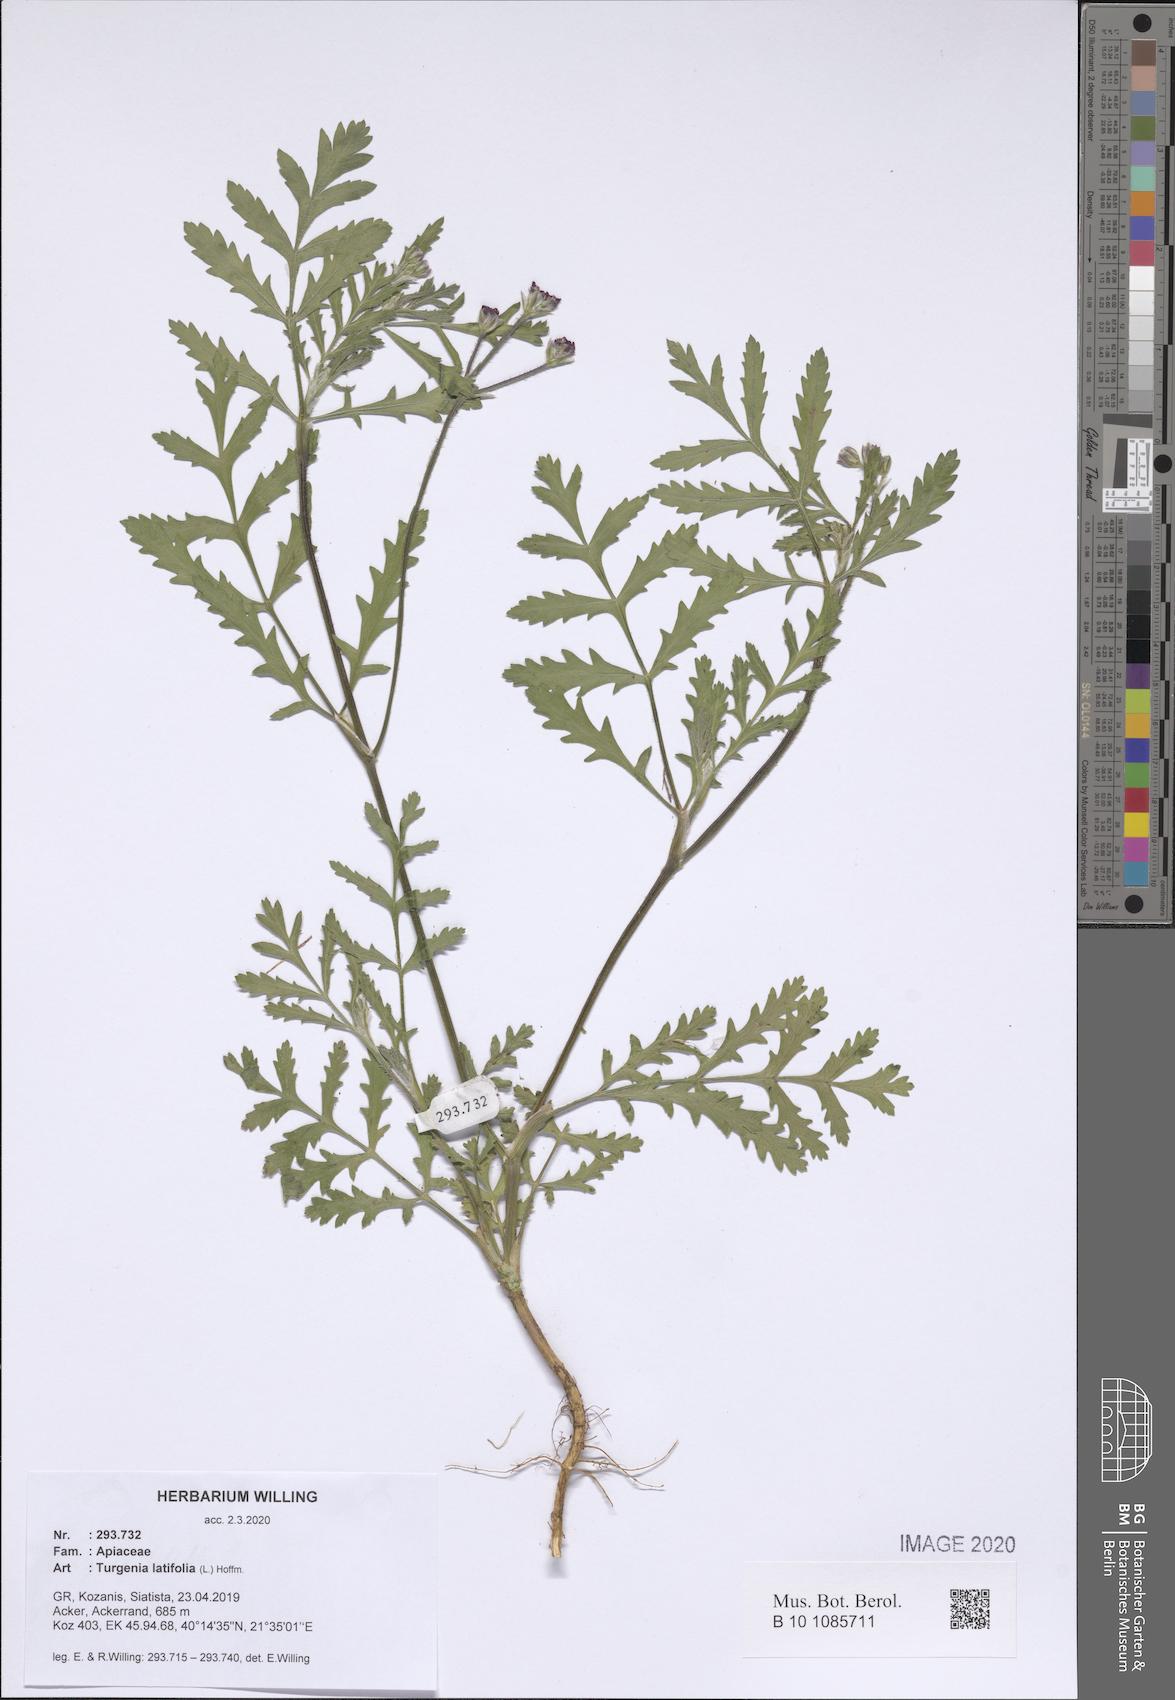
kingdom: Plantae
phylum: Tracheophyta
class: Magnoliopsida
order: Apiales
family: Apiaceae
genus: Turgenia
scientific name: Turgenia latifolia
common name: Greater bur-parsley
